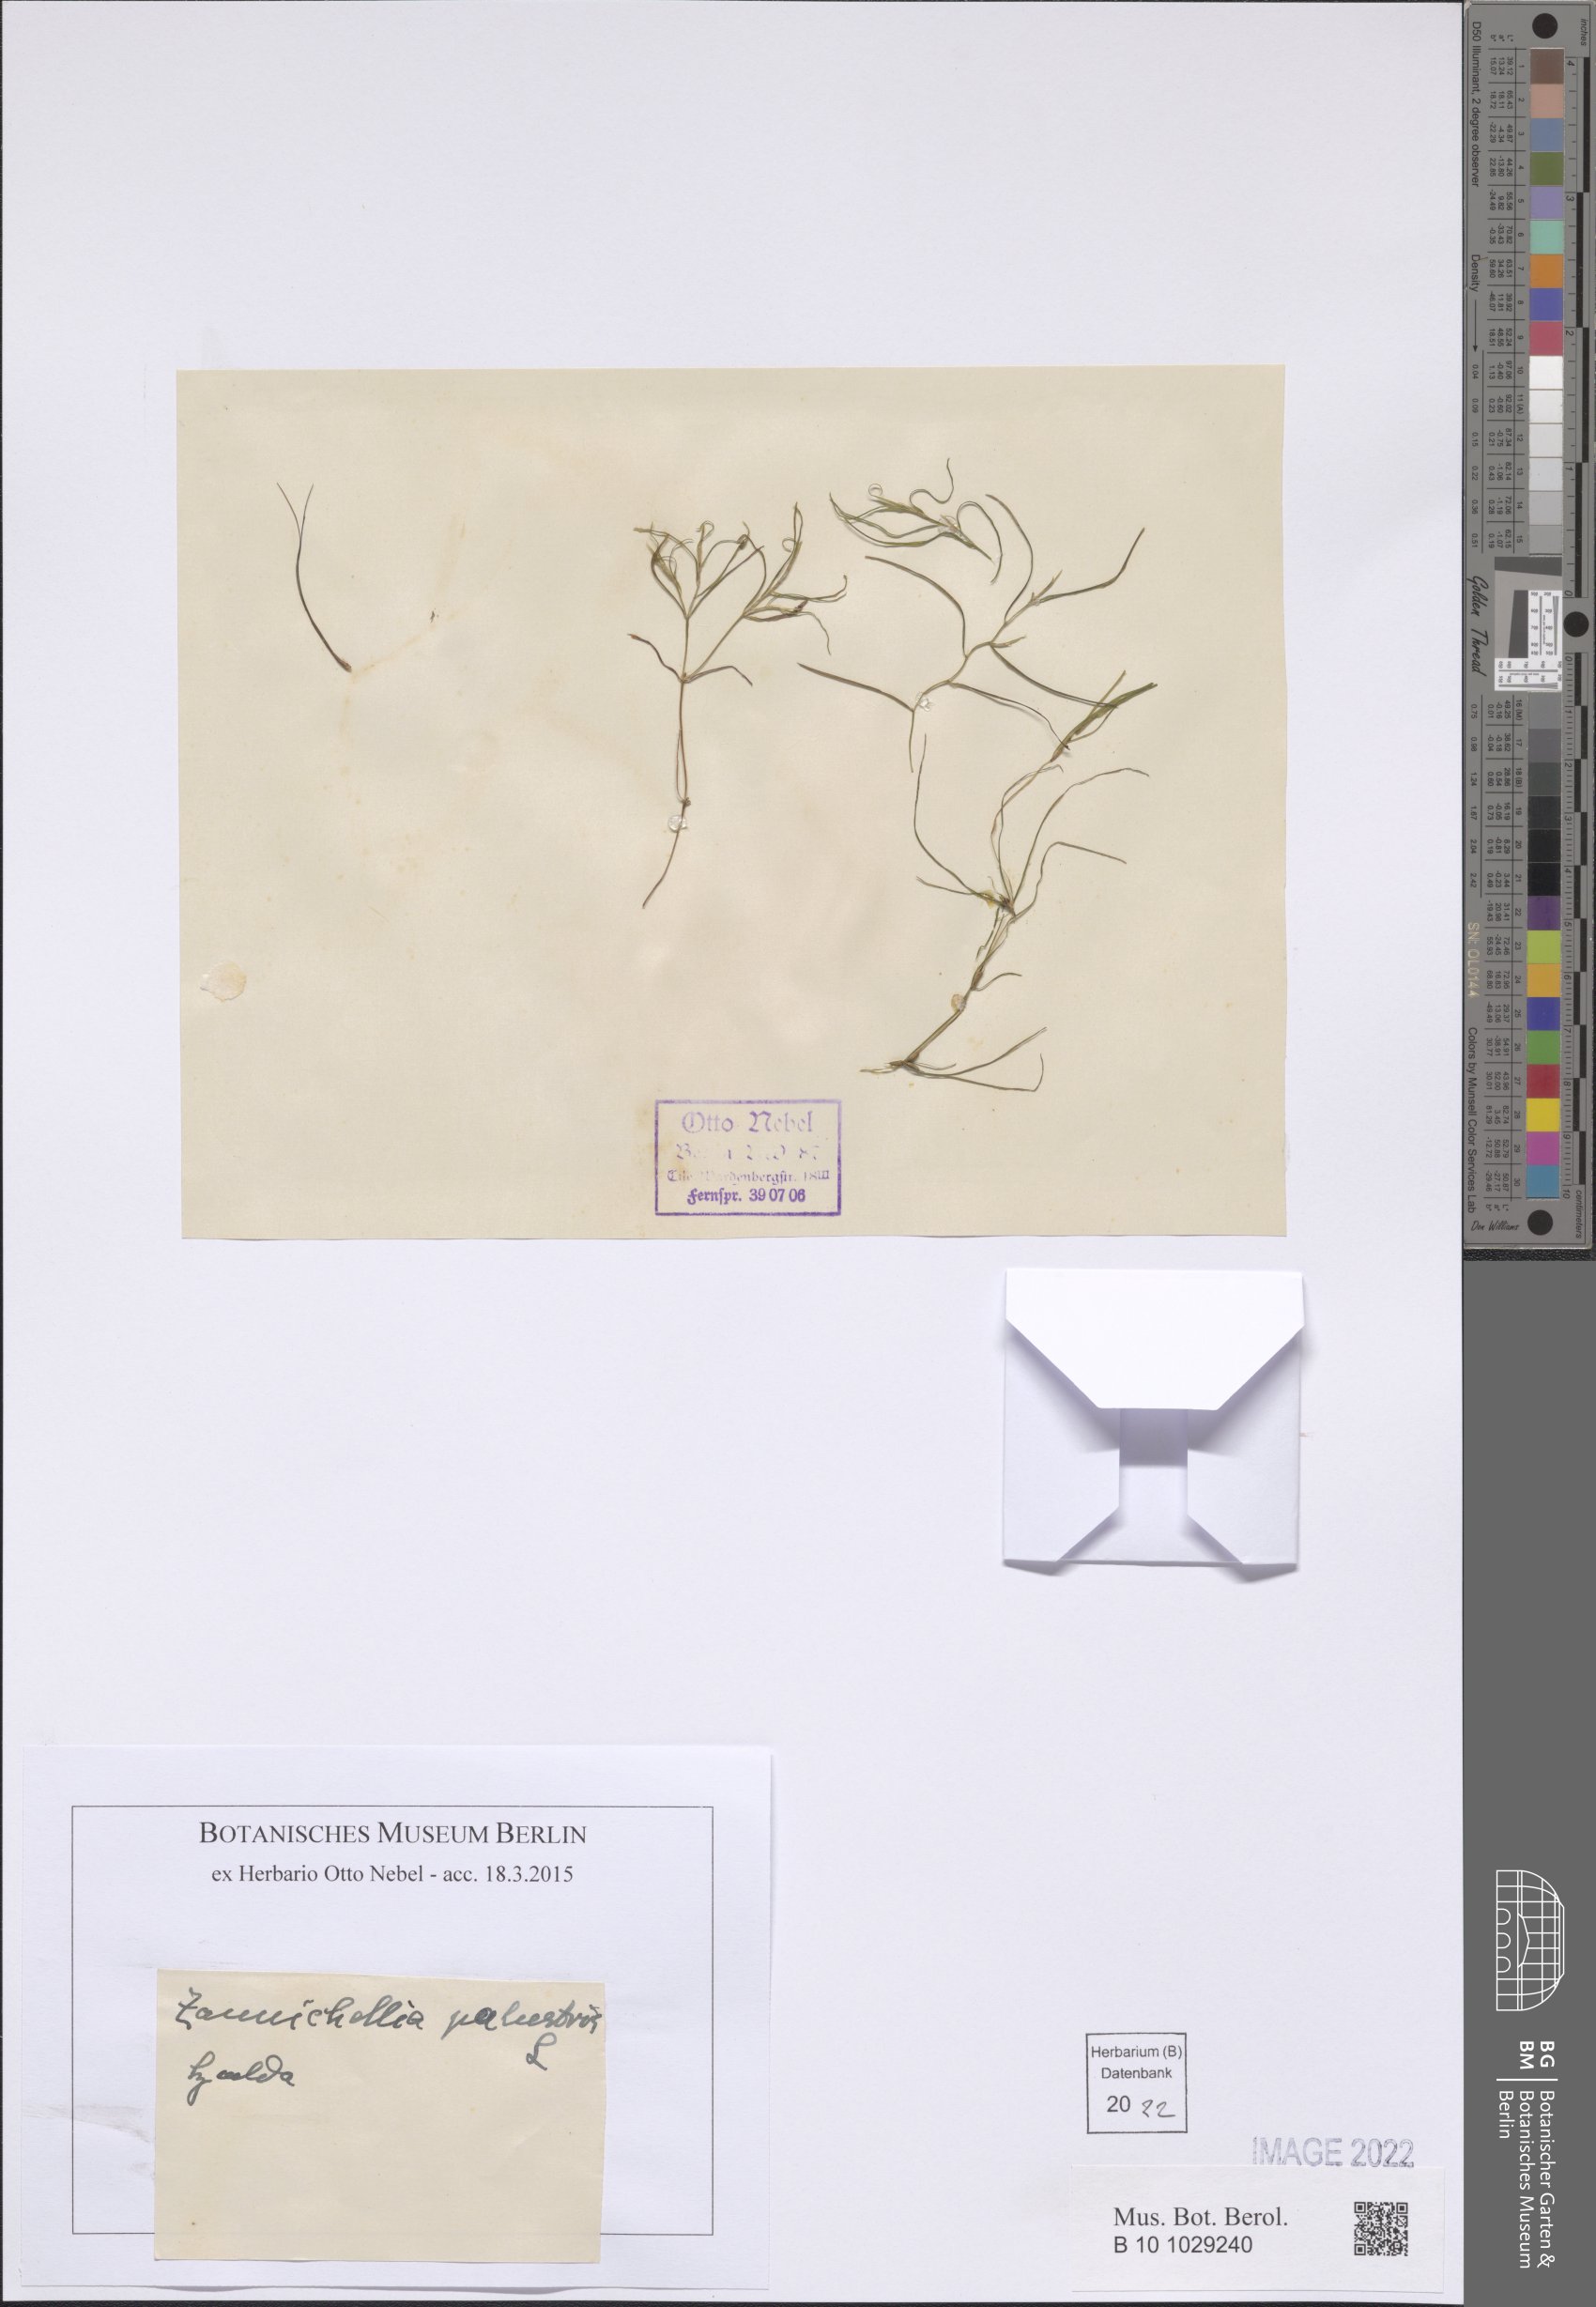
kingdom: Plantae
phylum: Tracheophyta
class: Liliopsida
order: Alismatales
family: Potamogetonaceae
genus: Zannichellia
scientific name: Zannichellia palustris
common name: Horned pondweed
